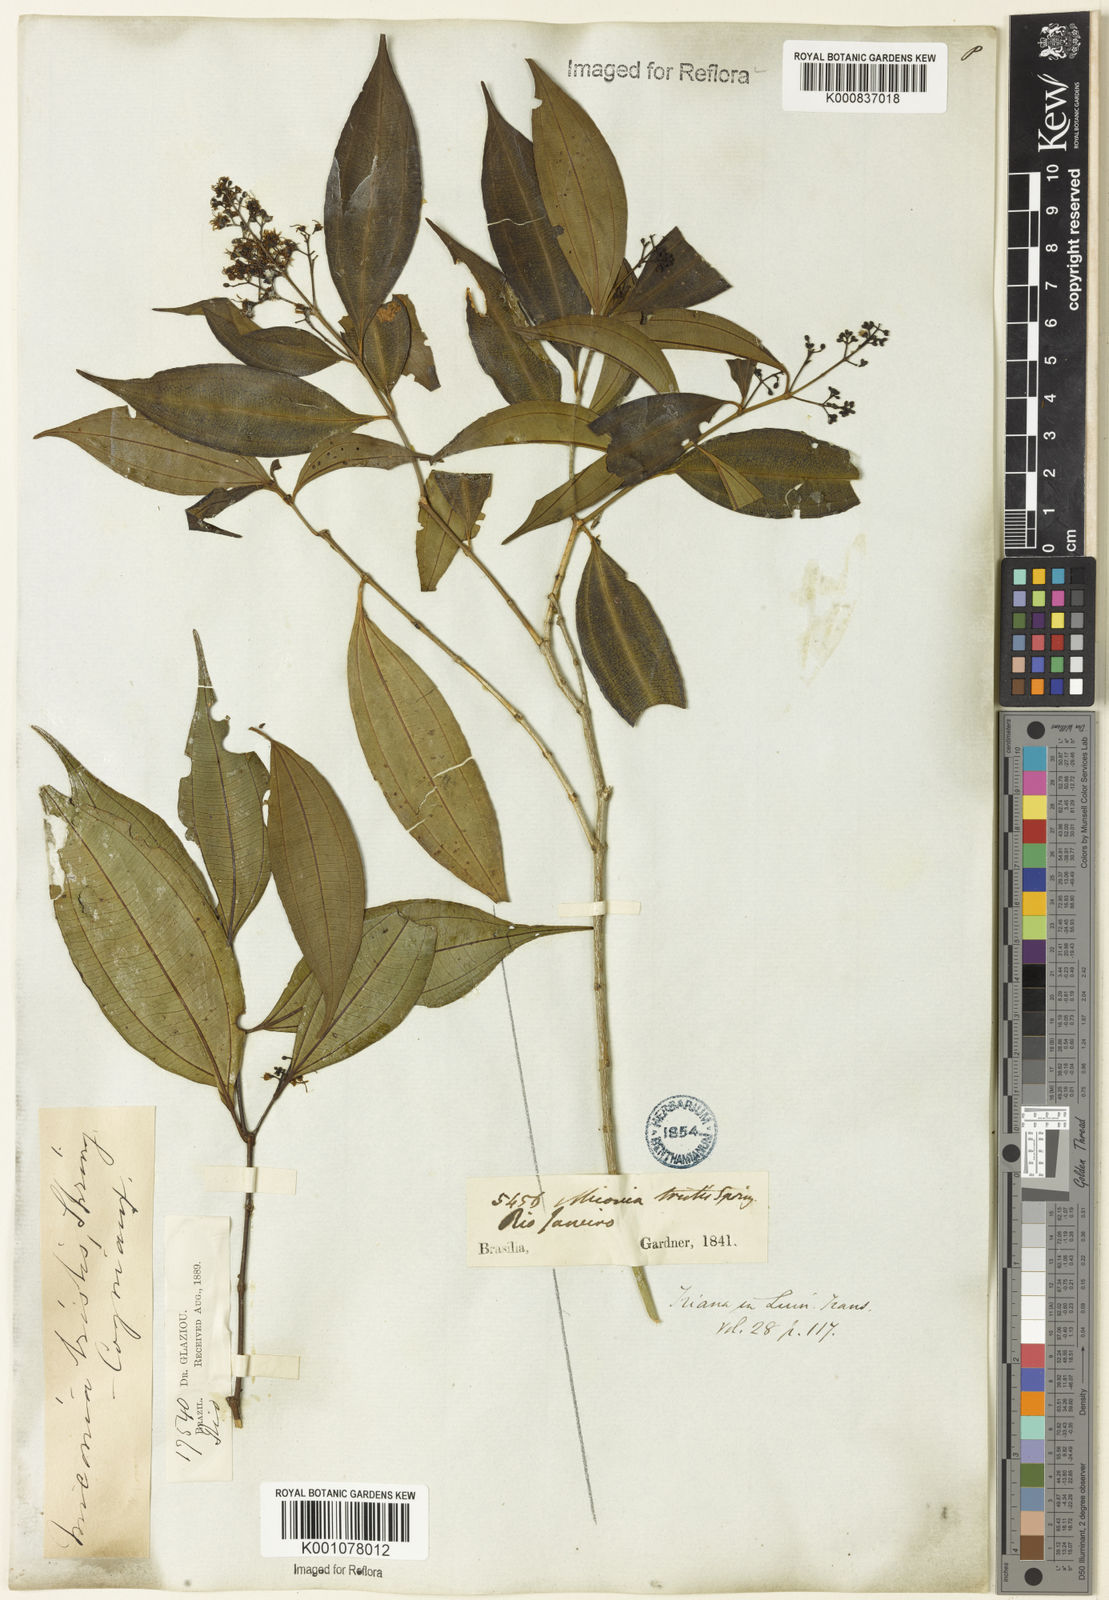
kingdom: Plantae
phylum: Tracheophyta
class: Magnoliopsida
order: Myrtales
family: Melastomataceae
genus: Miconia
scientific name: Miconia
